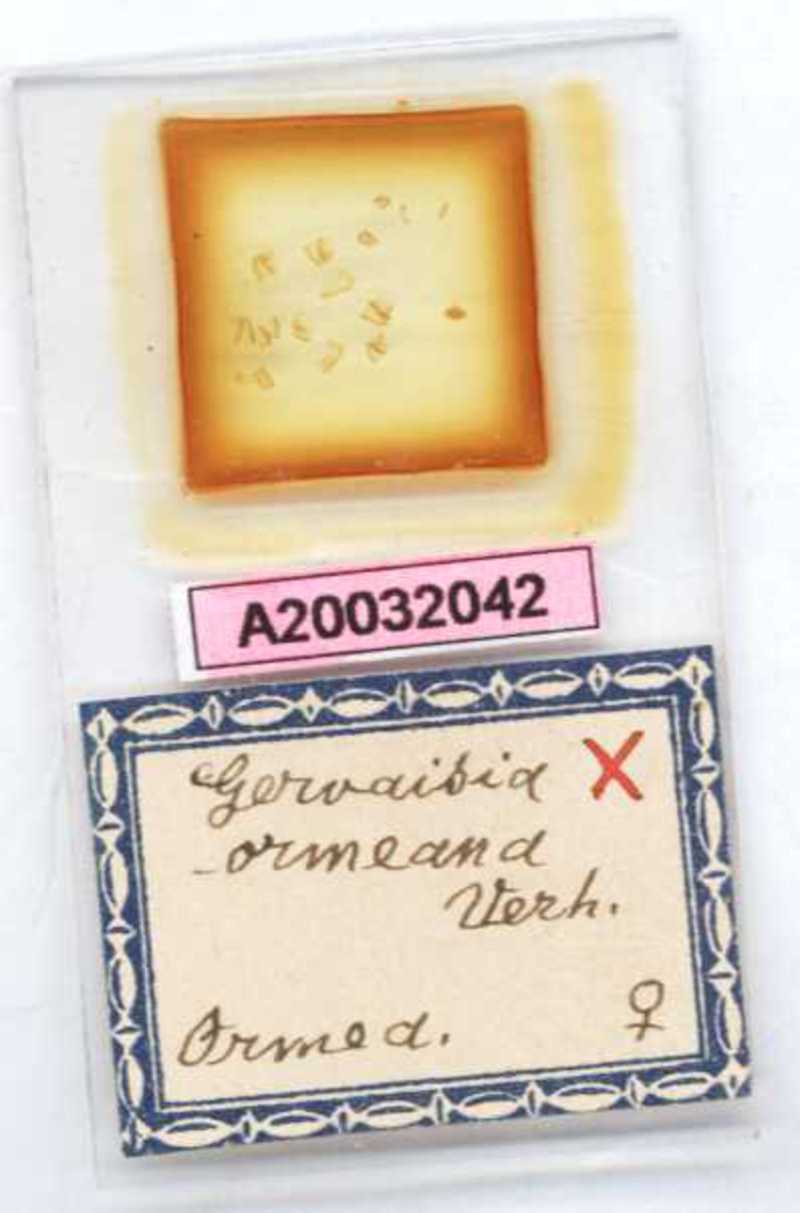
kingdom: Animalia
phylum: Arthropoda
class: Diplopoda
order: Glomerida
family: Glomeridae
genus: Trachysphaera
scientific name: Trachysphaera ormeana
